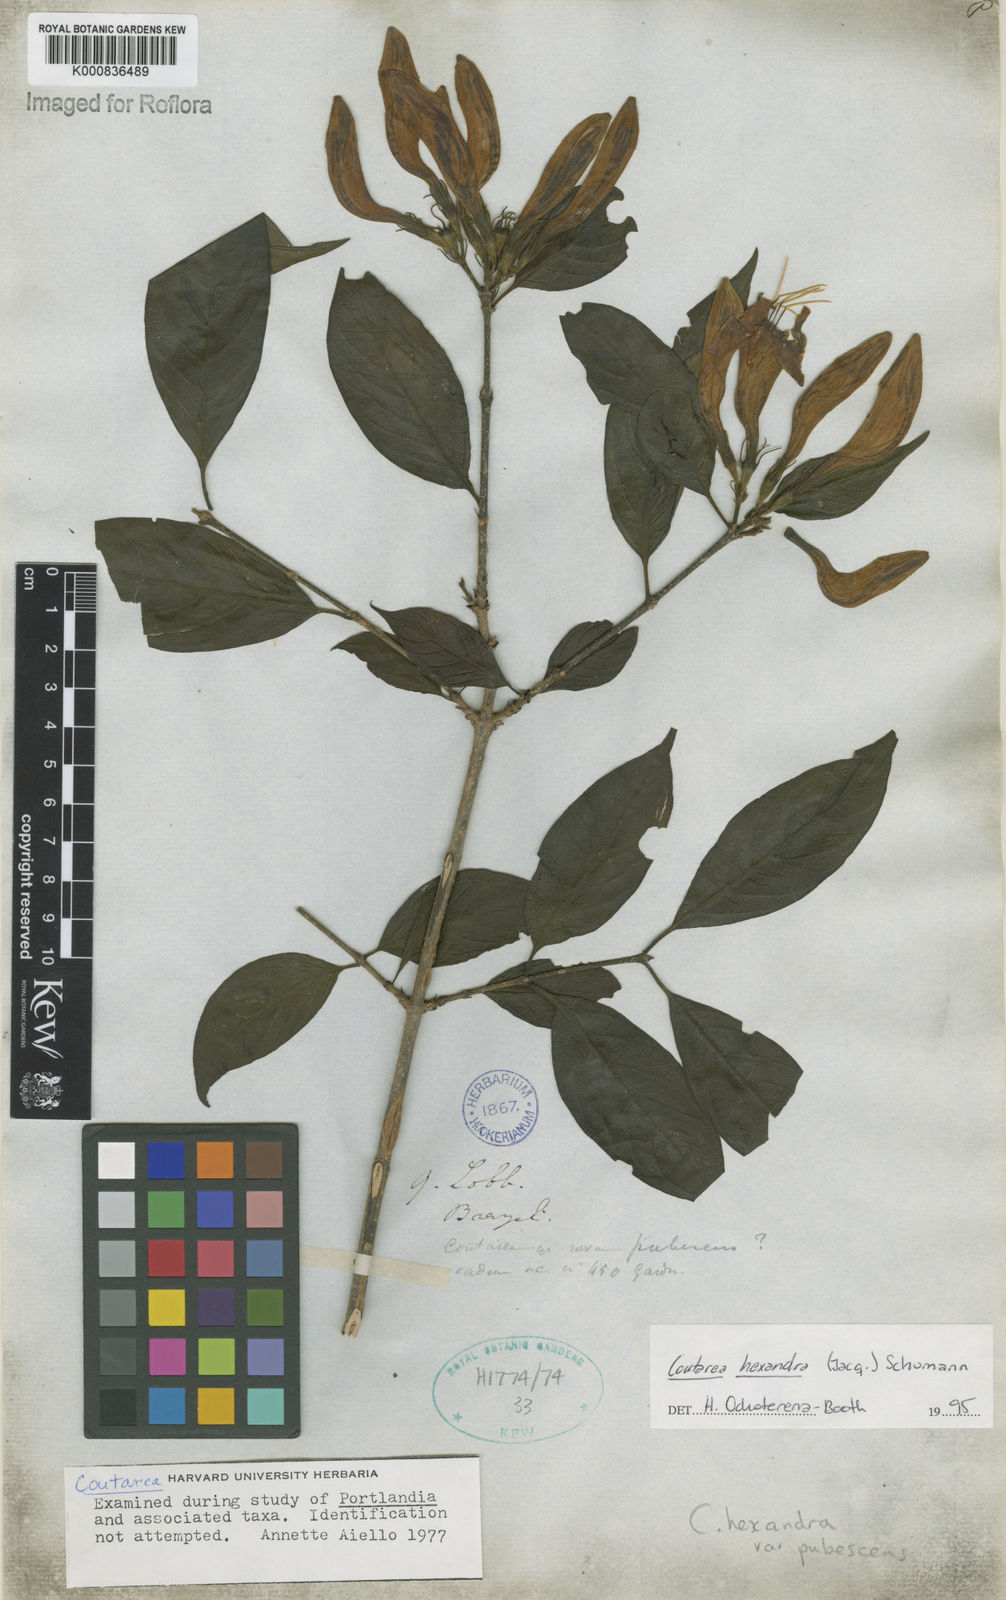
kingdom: Plantae
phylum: Tracheophyta
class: Magnoliopsida
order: Gentianales
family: Rubiaceae
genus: Coutarea
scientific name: Coutarea hexandra
